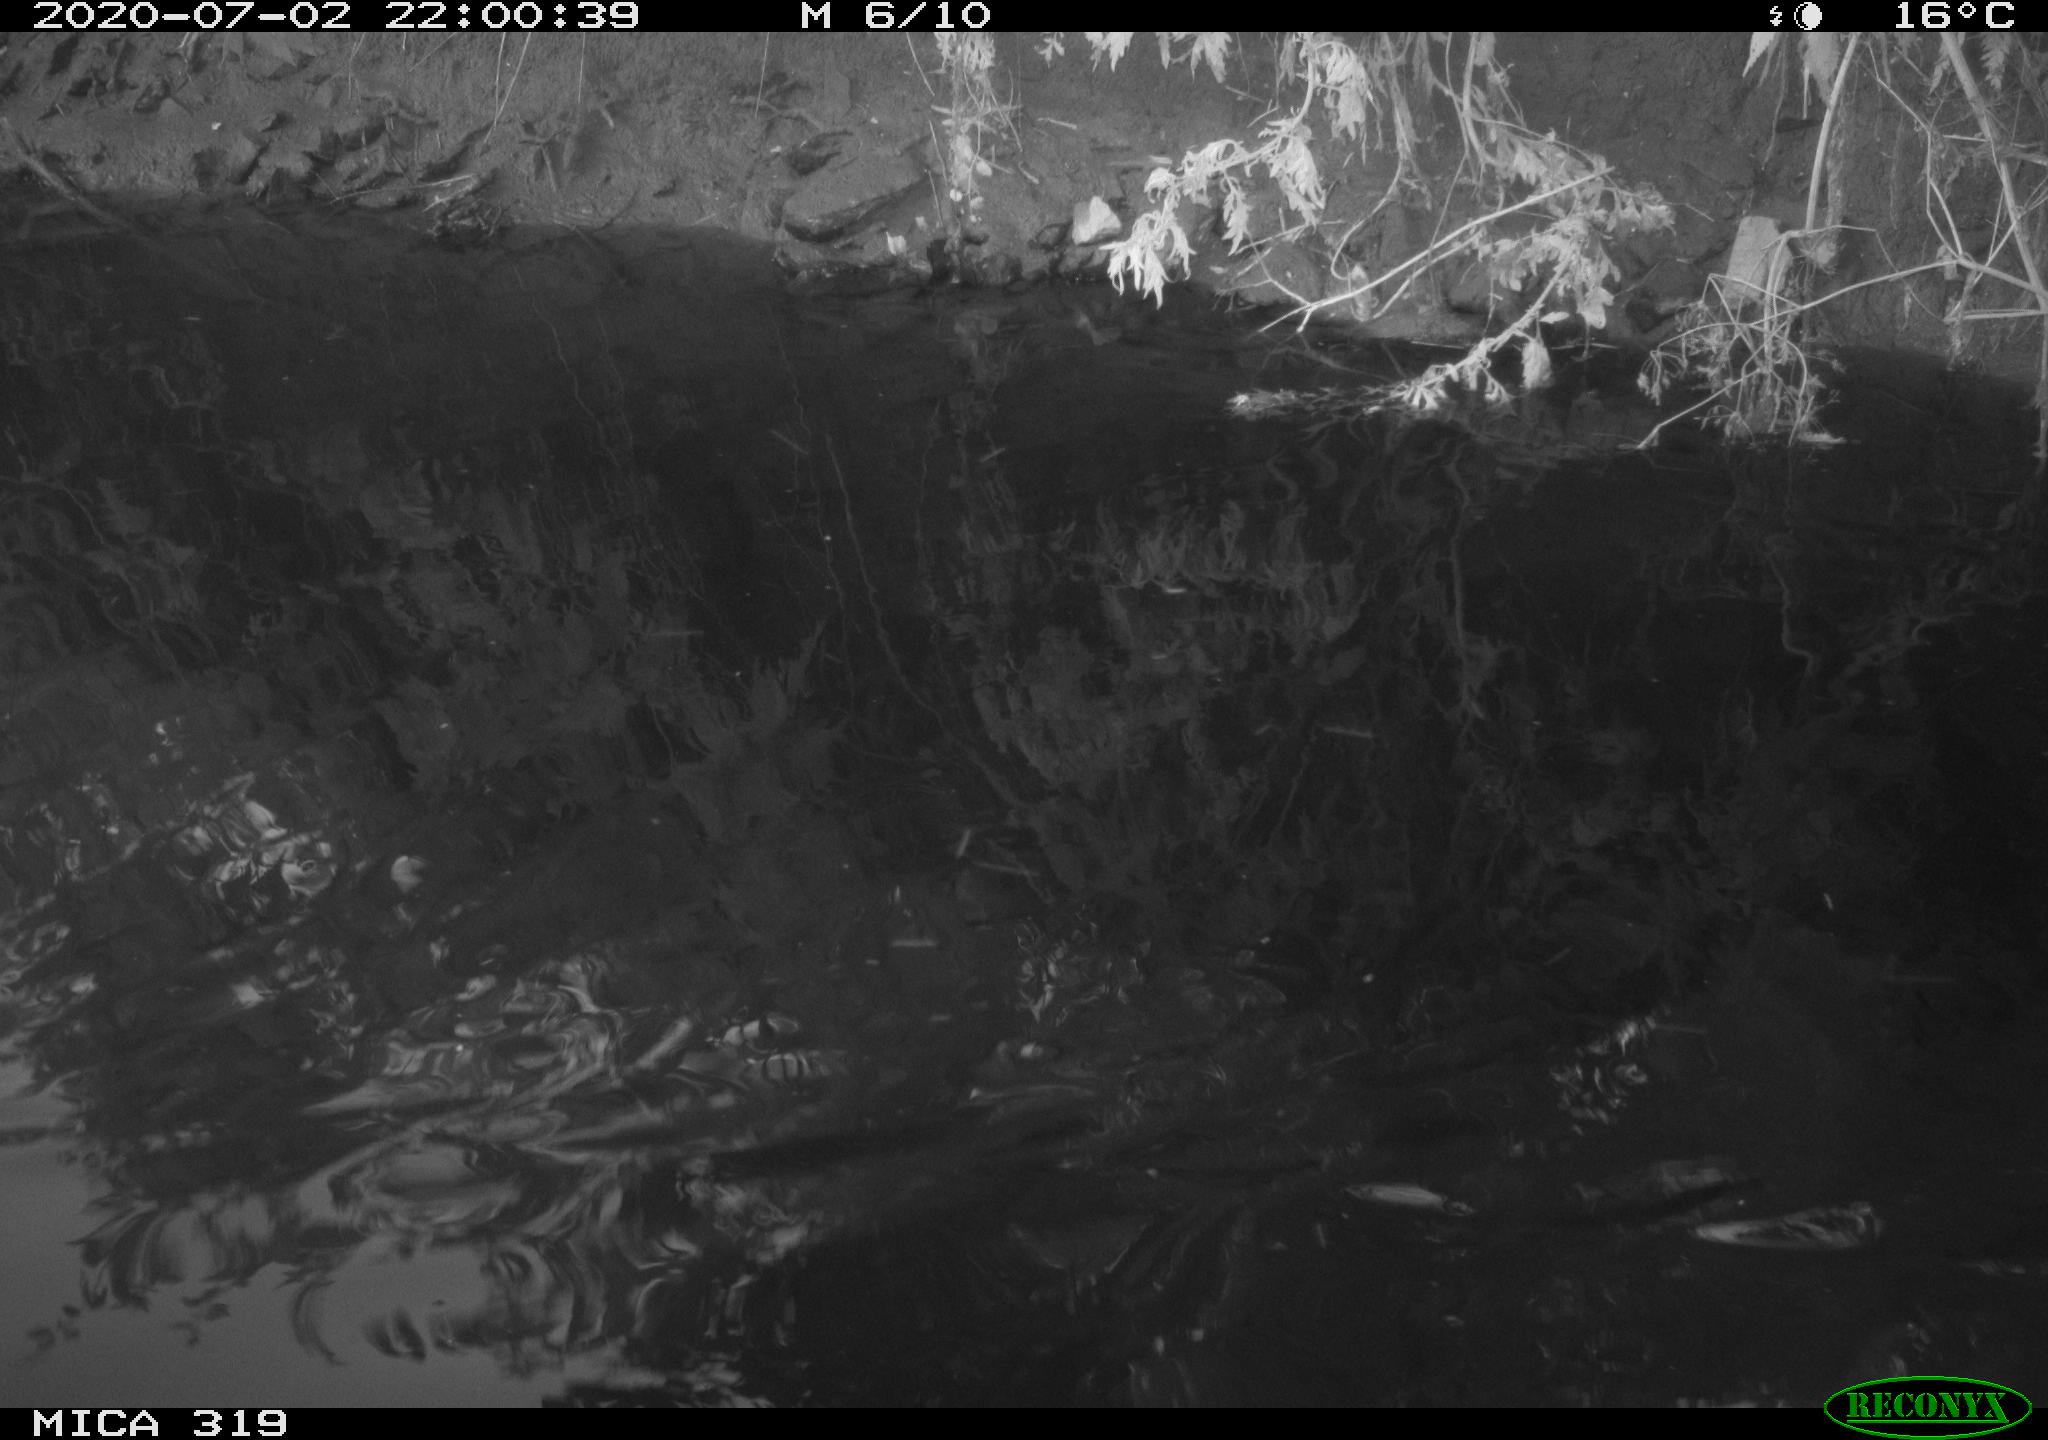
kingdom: Animalia
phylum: Chordata
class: Aves
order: Anseriformes
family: Anatidae
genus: Anas
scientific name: Anas platyrhynchos
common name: Mallard
